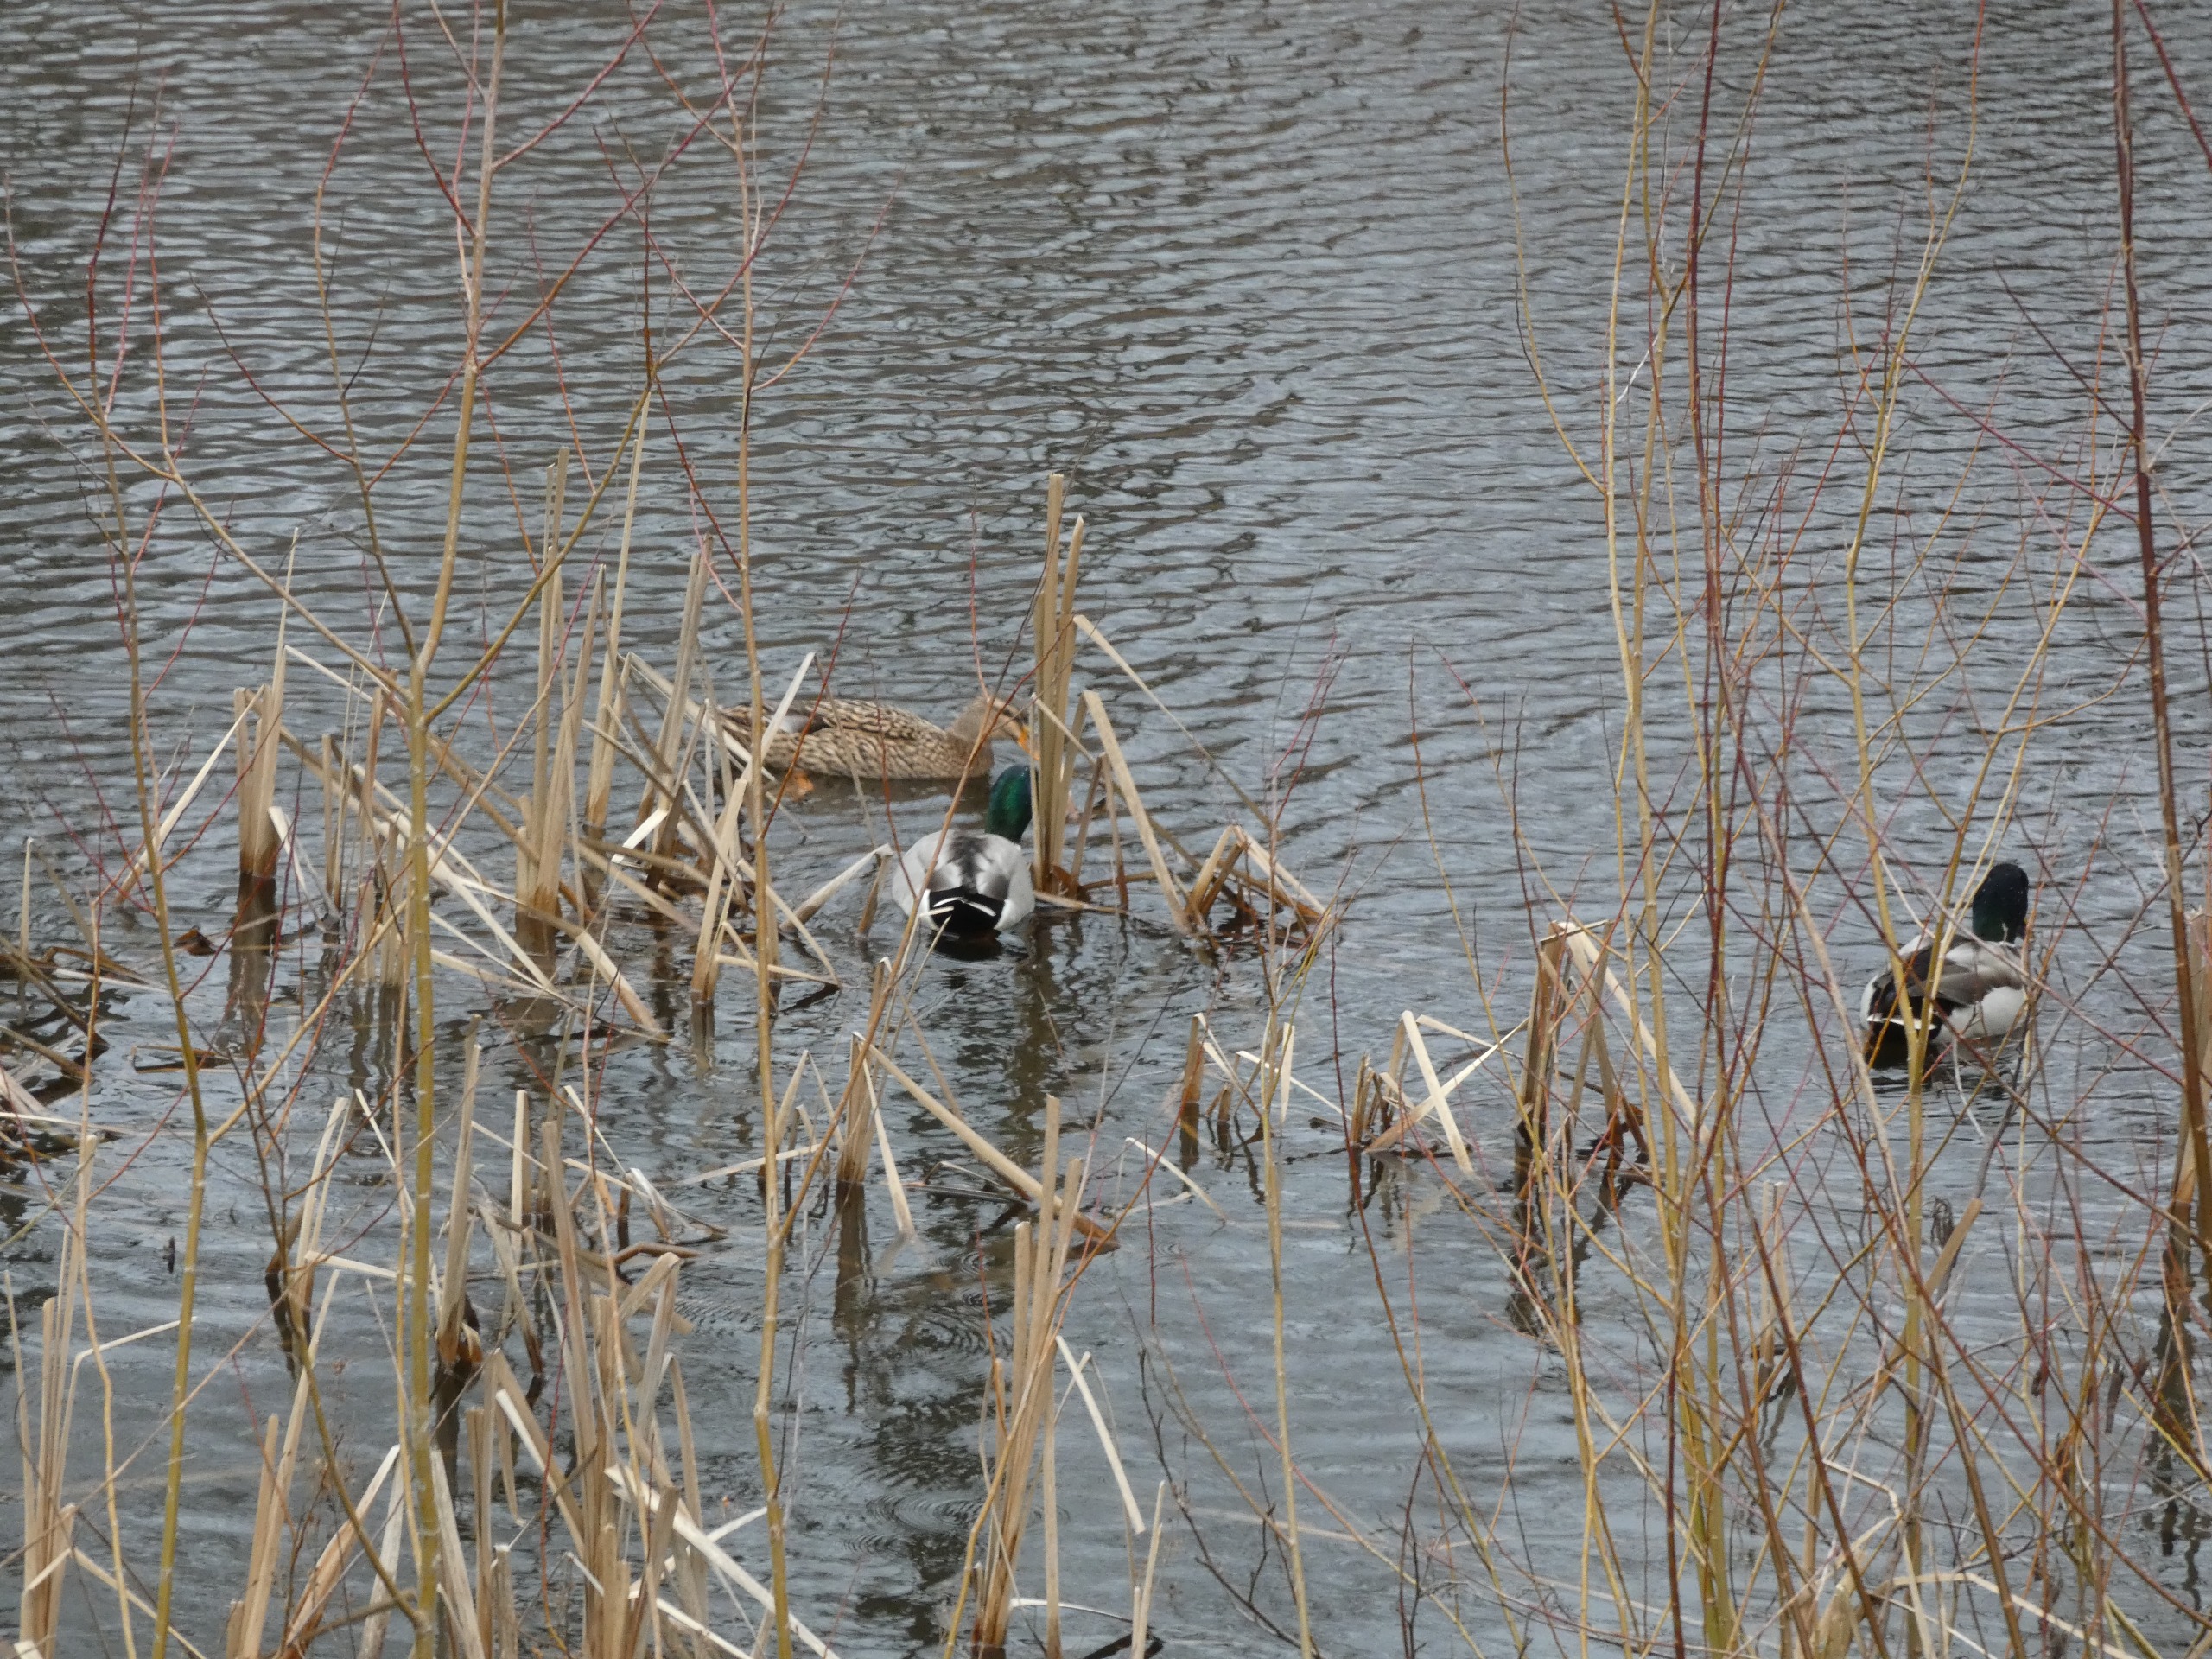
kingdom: Animalia
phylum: Chordata
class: Aves
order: Anseriformes
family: Anatidae
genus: Anas
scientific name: Anas platyrhynchos
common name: Gråand
